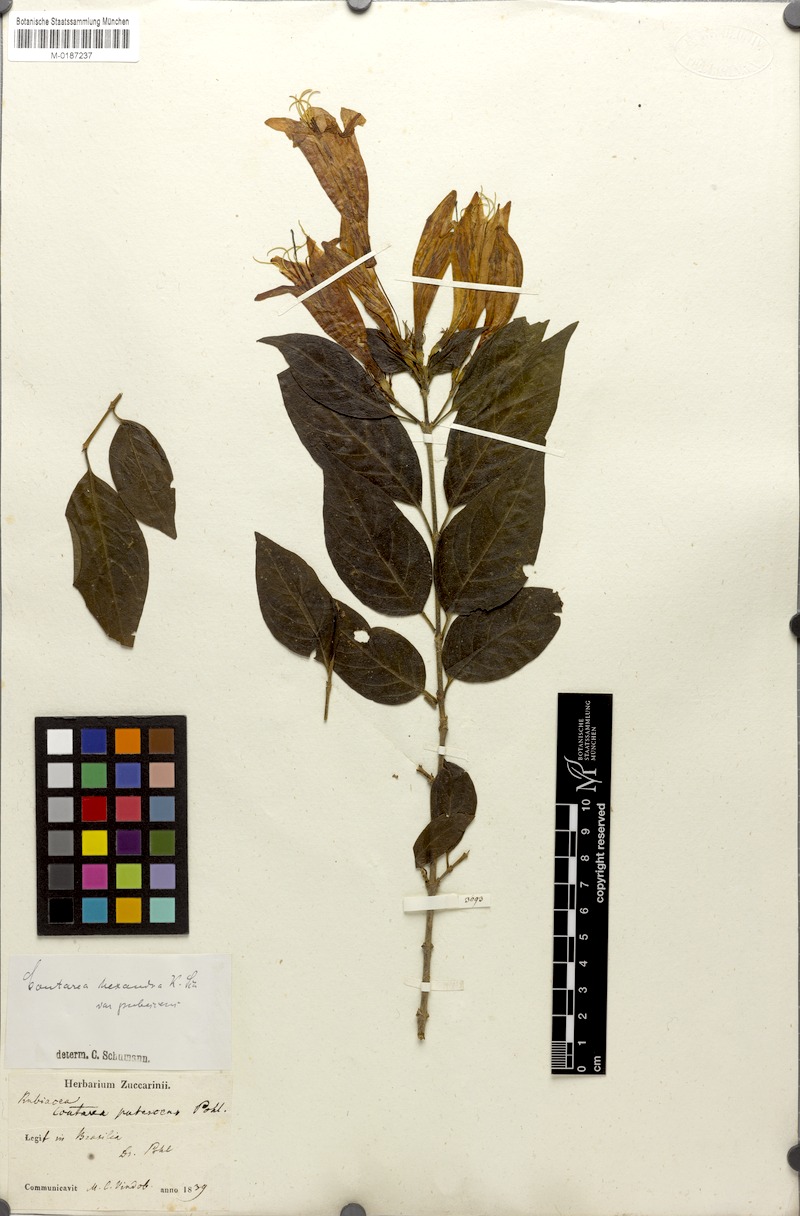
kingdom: Plantae
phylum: Tracheophyta
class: Magnoliopsida
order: Gentianales
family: Rubiaceae
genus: Coutarea
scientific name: Coutarea hexandra
